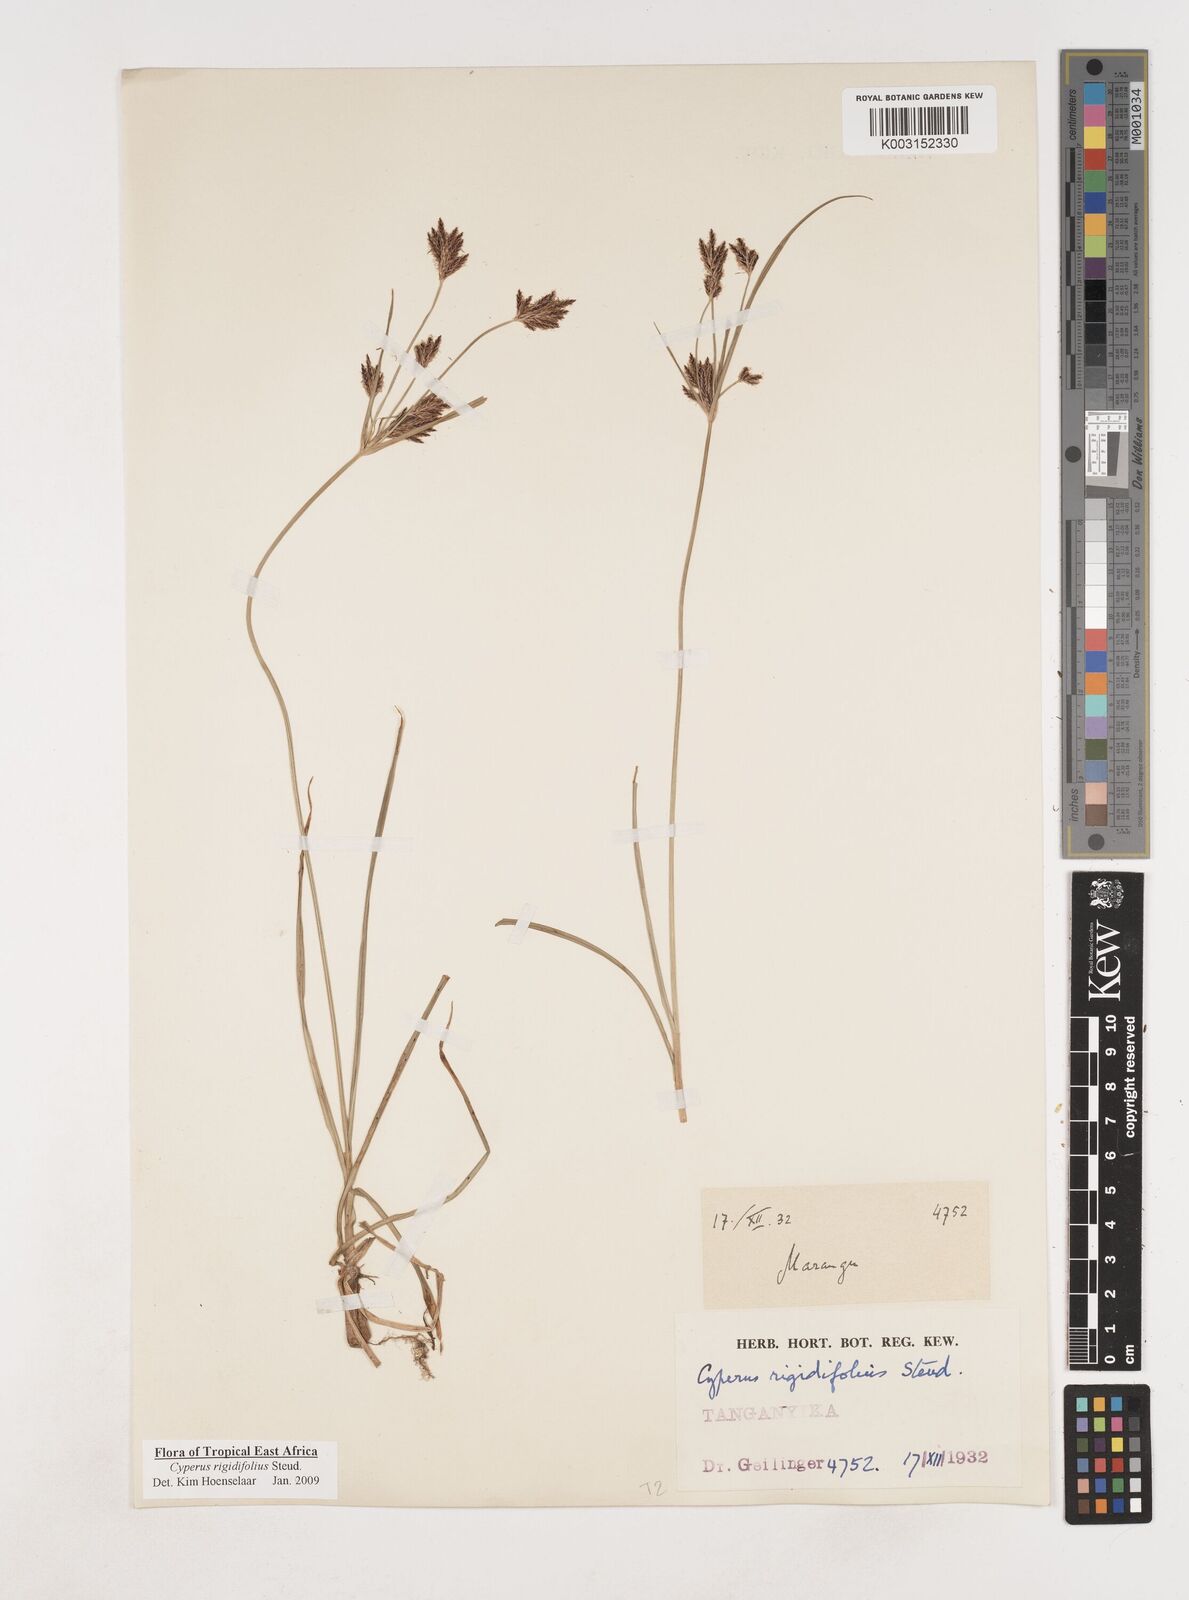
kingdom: Plantae
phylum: Tracheophyta
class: Liliopsida
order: Poales
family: Cyperaceae
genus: Cyperus
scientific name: Cyperus rigidifolius
